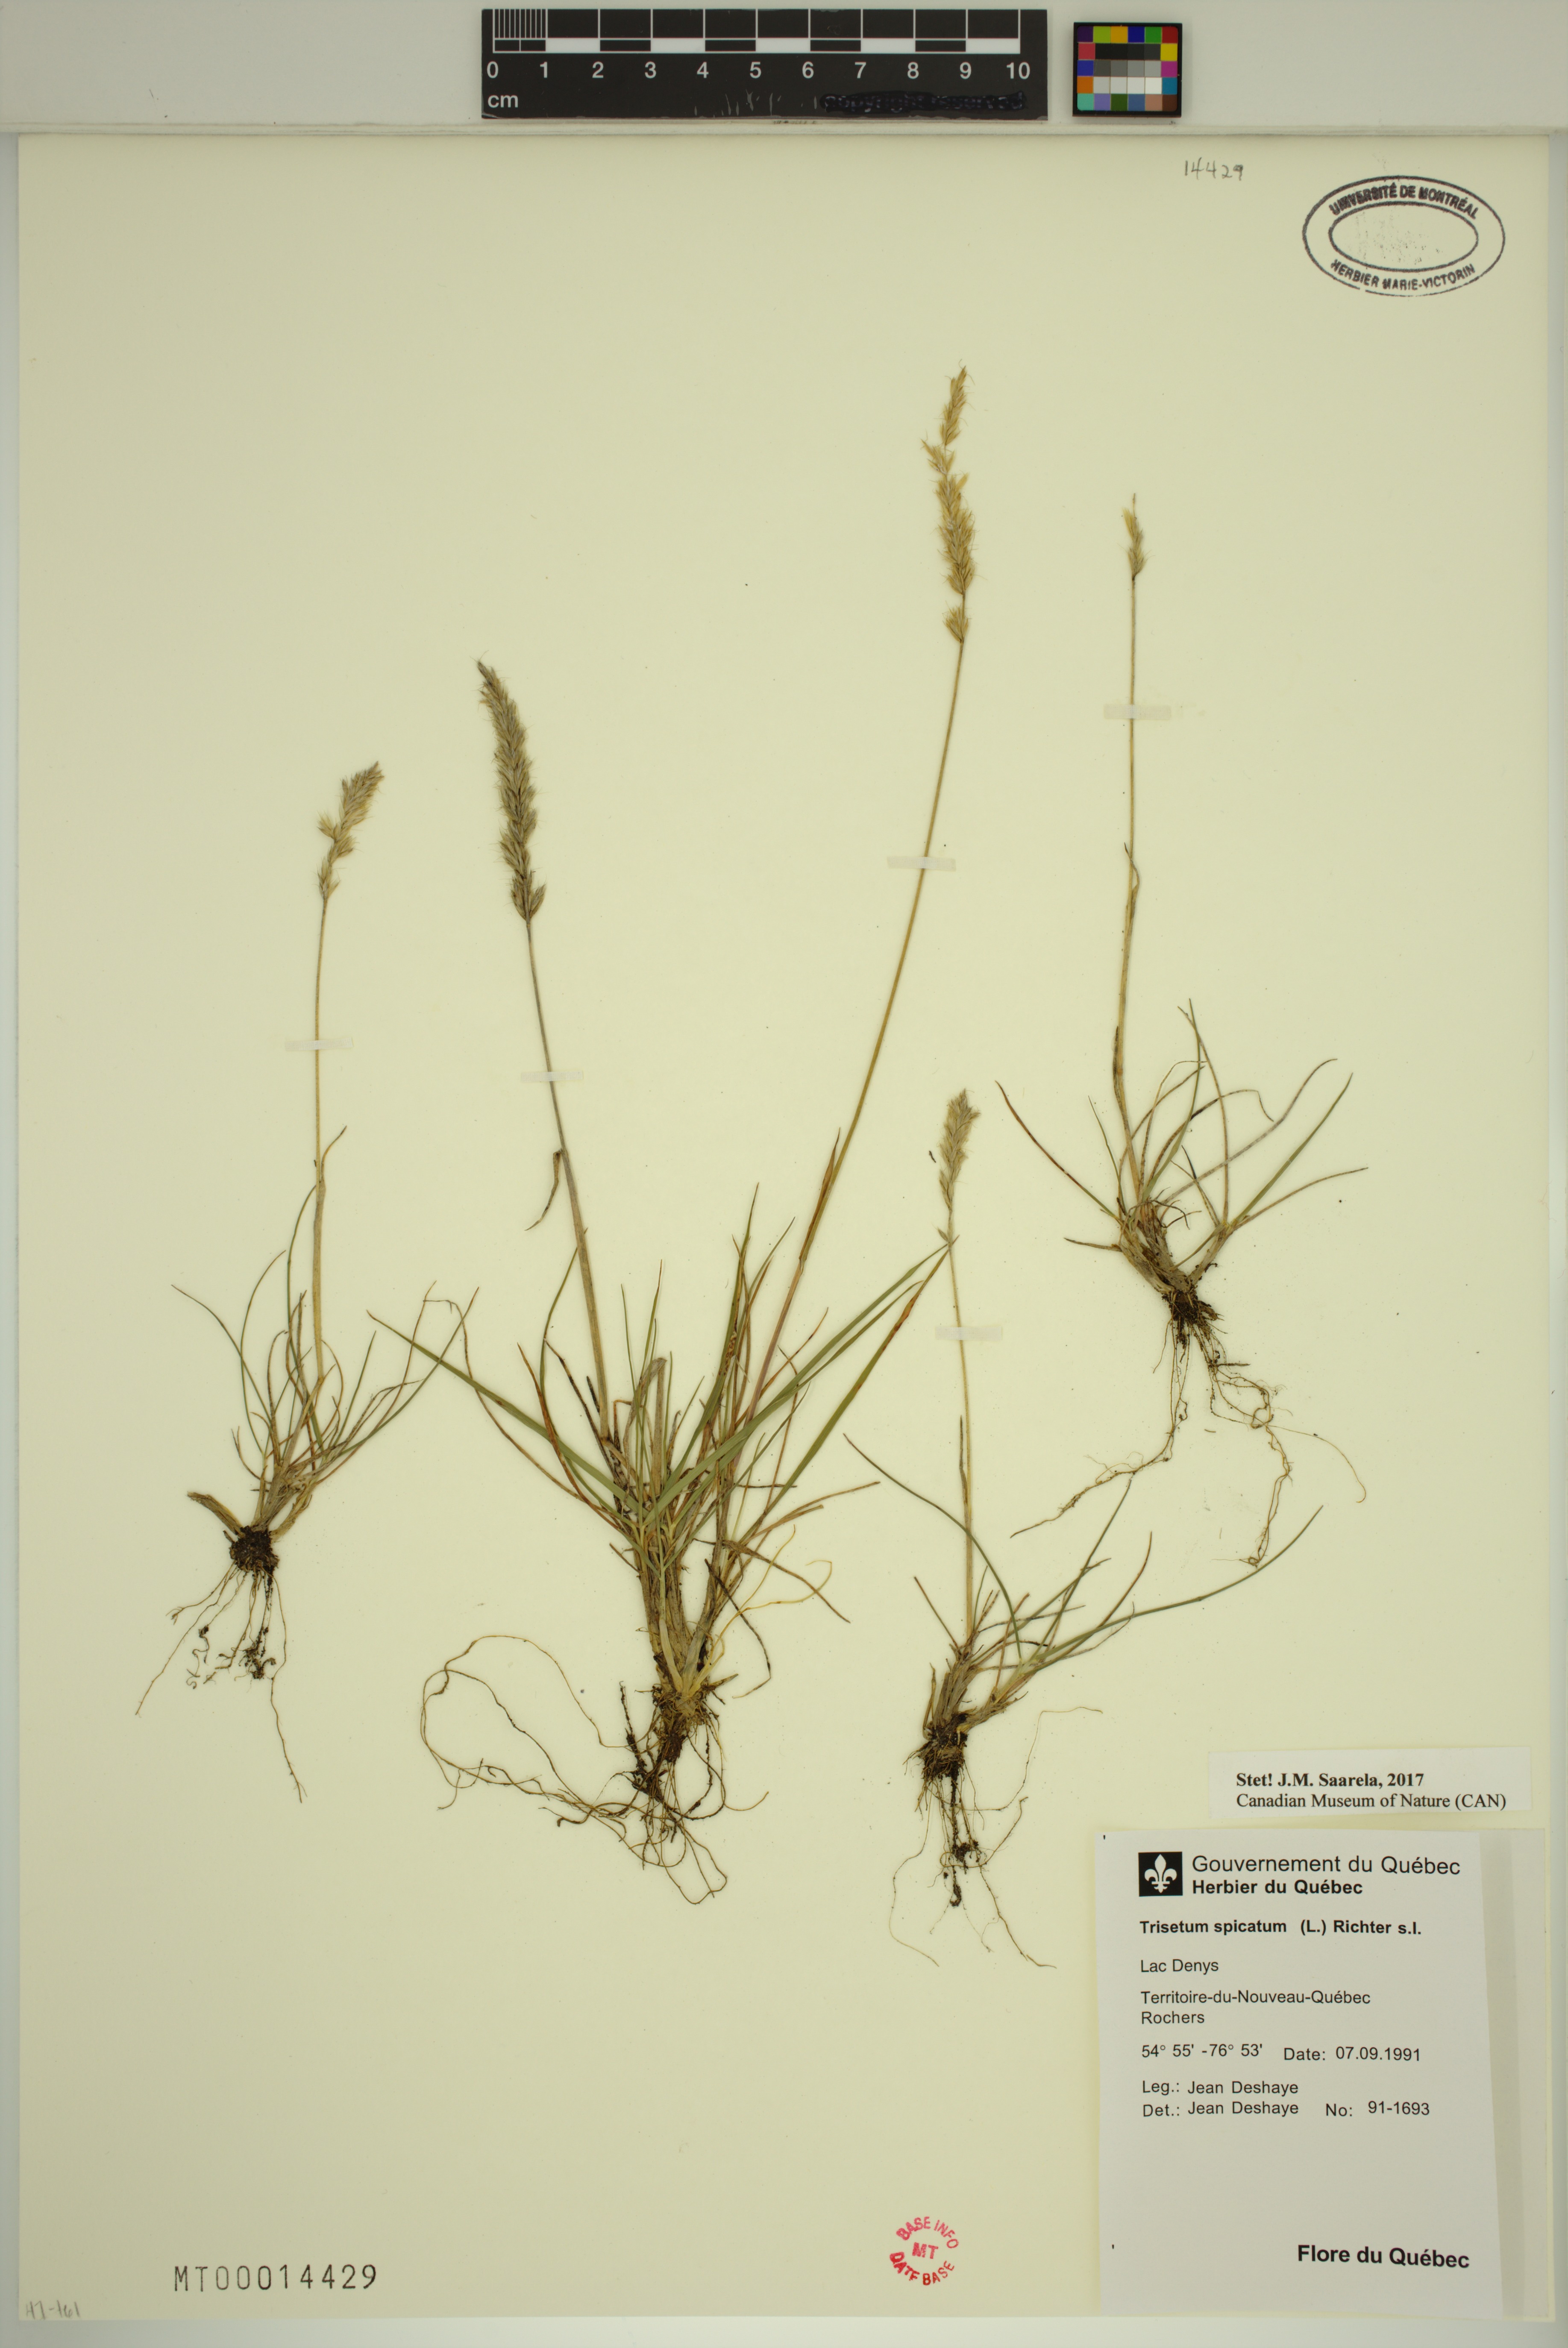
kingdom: Plantae
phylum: Tracheophyta
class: Liliopsida
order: Poales
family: Poaceae
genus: Koeleria
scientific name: Koeleria spicata
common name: Mountain trisetum
